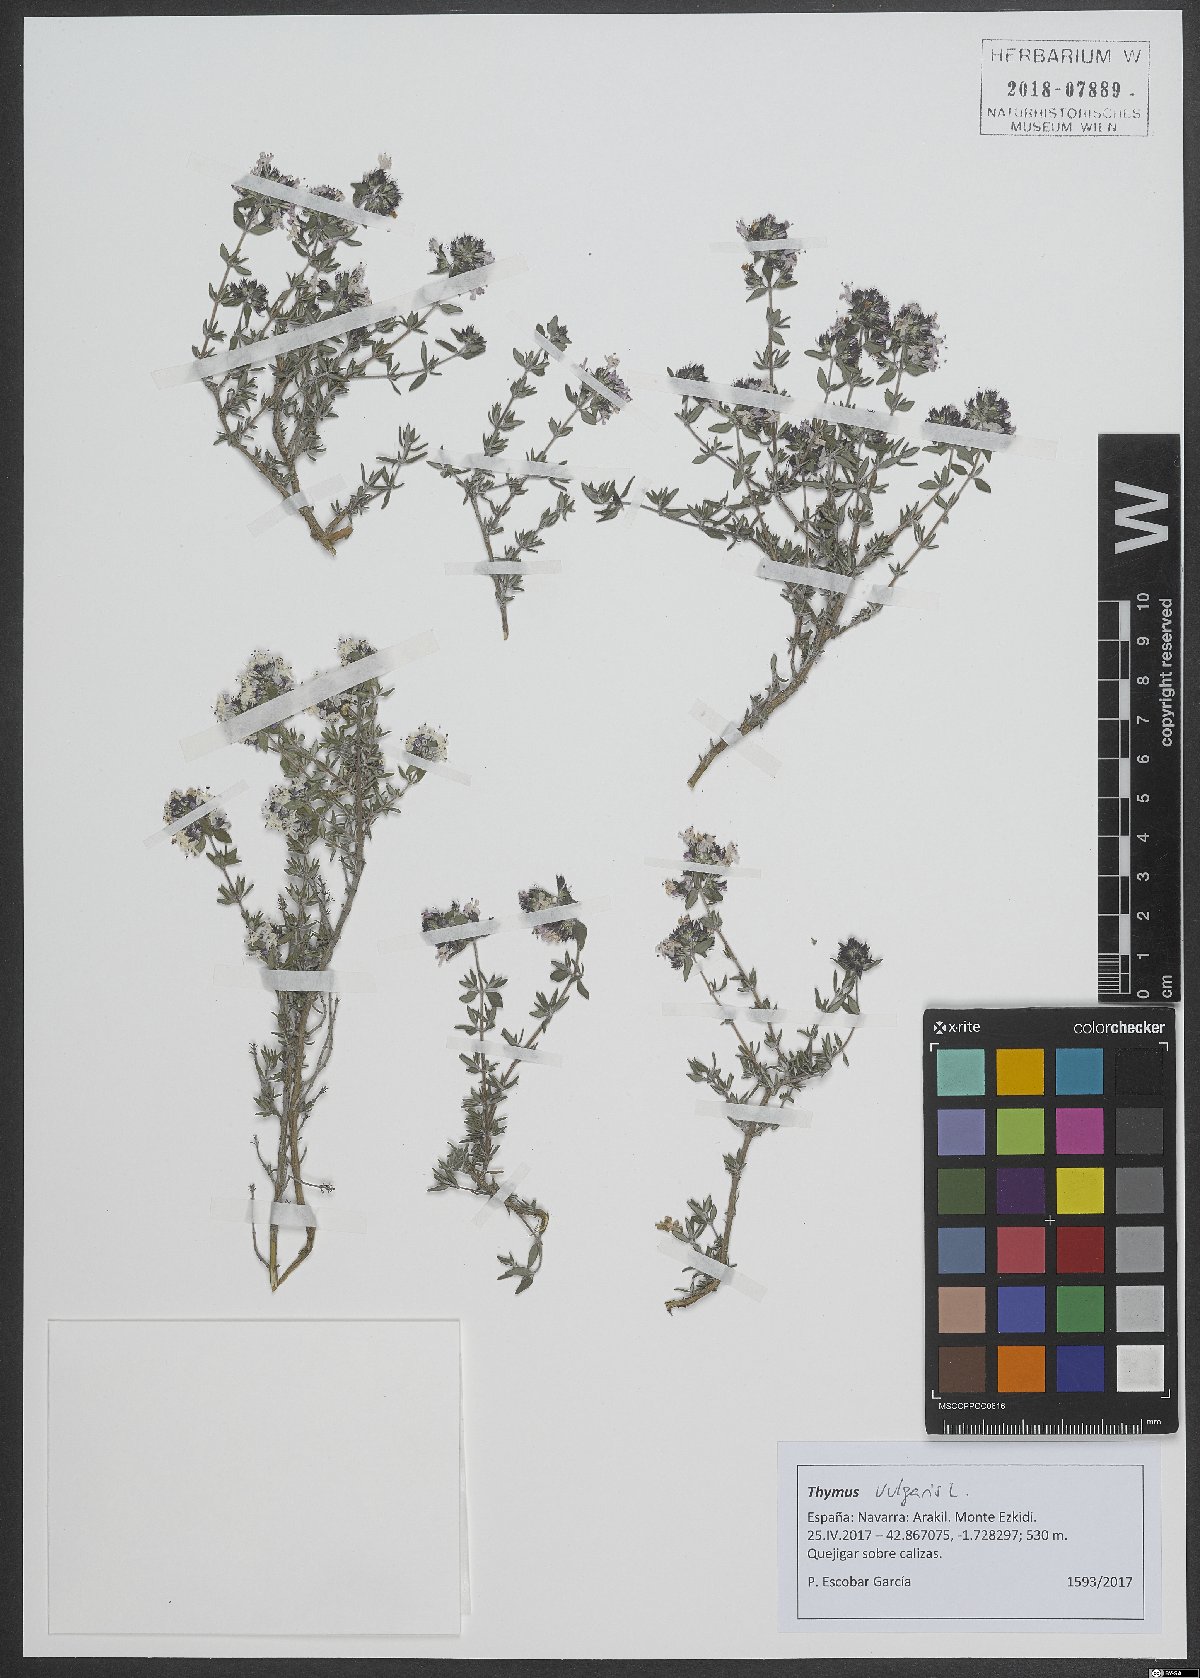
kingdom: Plantae
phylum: Tracheophyta
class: Magnoliopsida
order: Lamiales
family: Lamiaceae
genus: Thymus
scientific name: Thymus vulgaris
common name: Garden thyme
